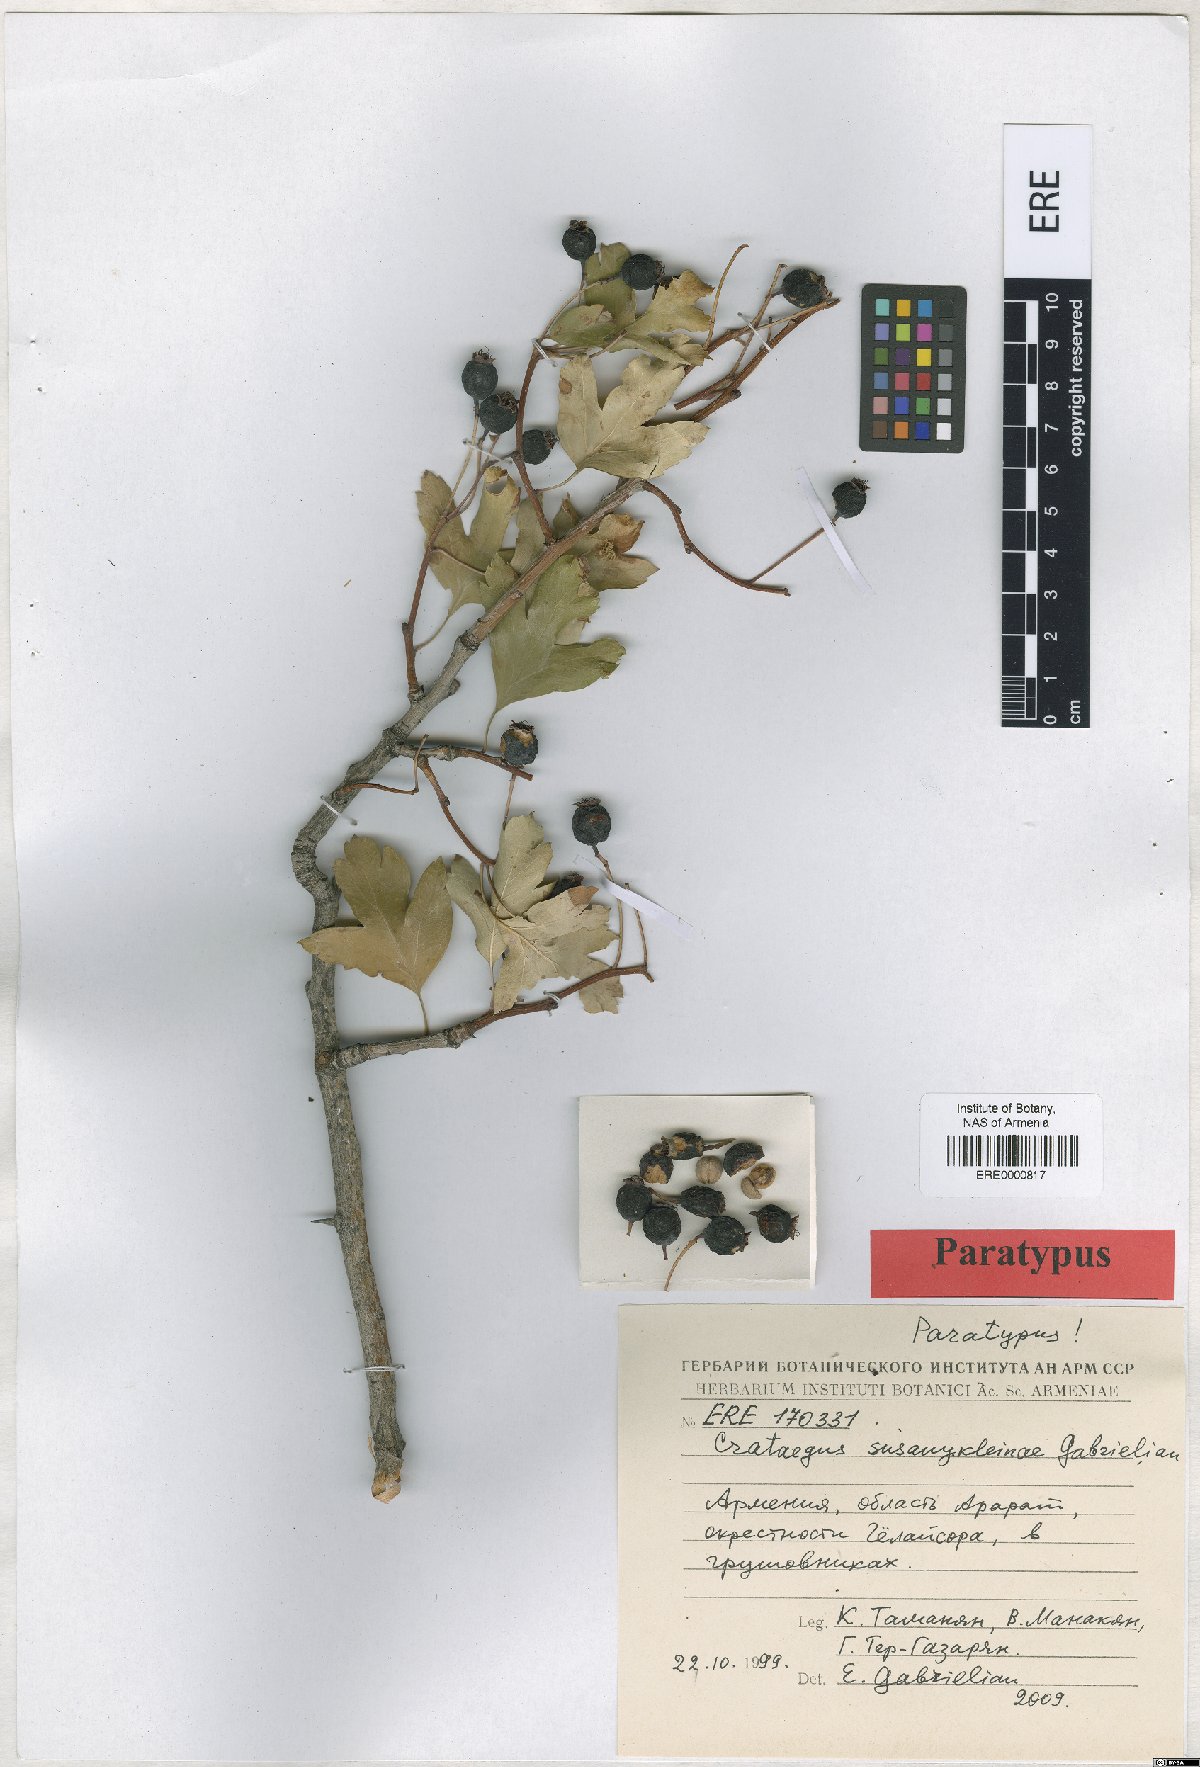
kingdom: Plantae
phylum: Tracheophyta
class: Magnoliopsida
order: Rosales
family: Rosaceae
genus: Crataegus
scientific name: Crataegus
